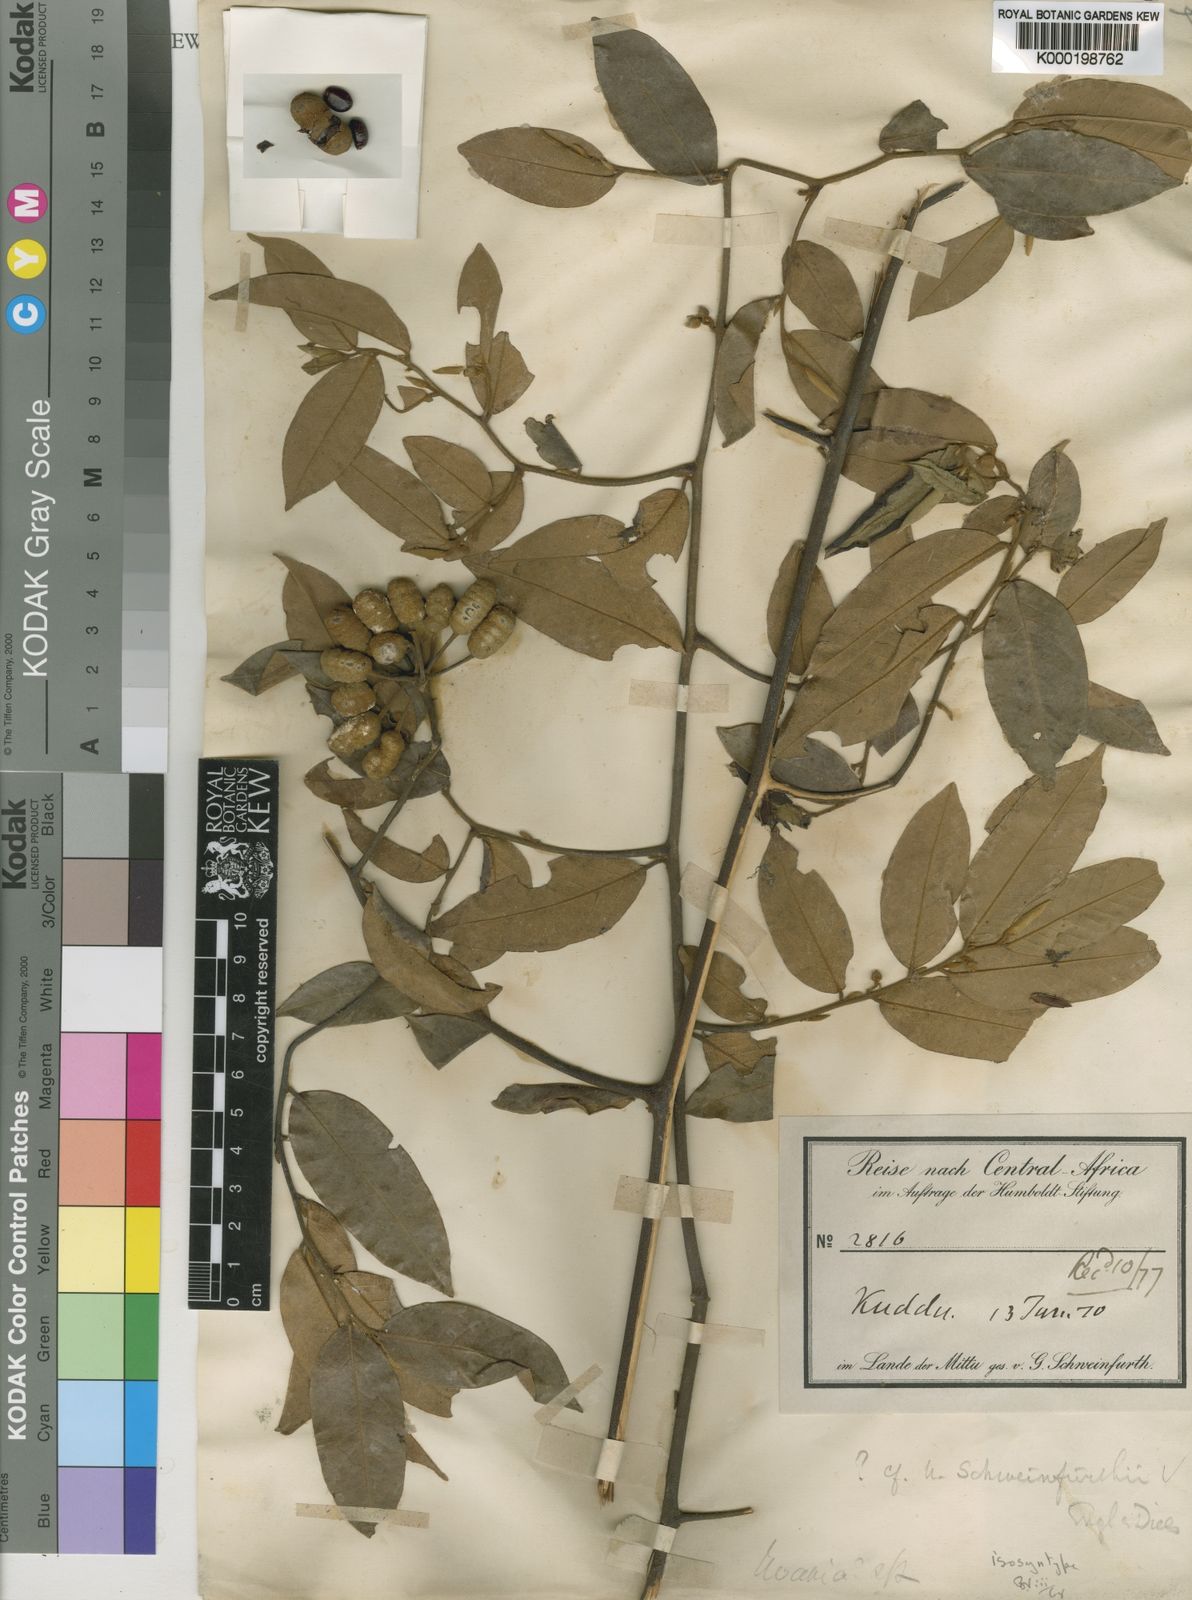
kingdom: Plantae
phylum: Tracheophyta
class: Magnoliopsida
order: Magnoliales
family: Annonaceae
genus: Uvaria
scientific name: Uvaria schweinfurthii
